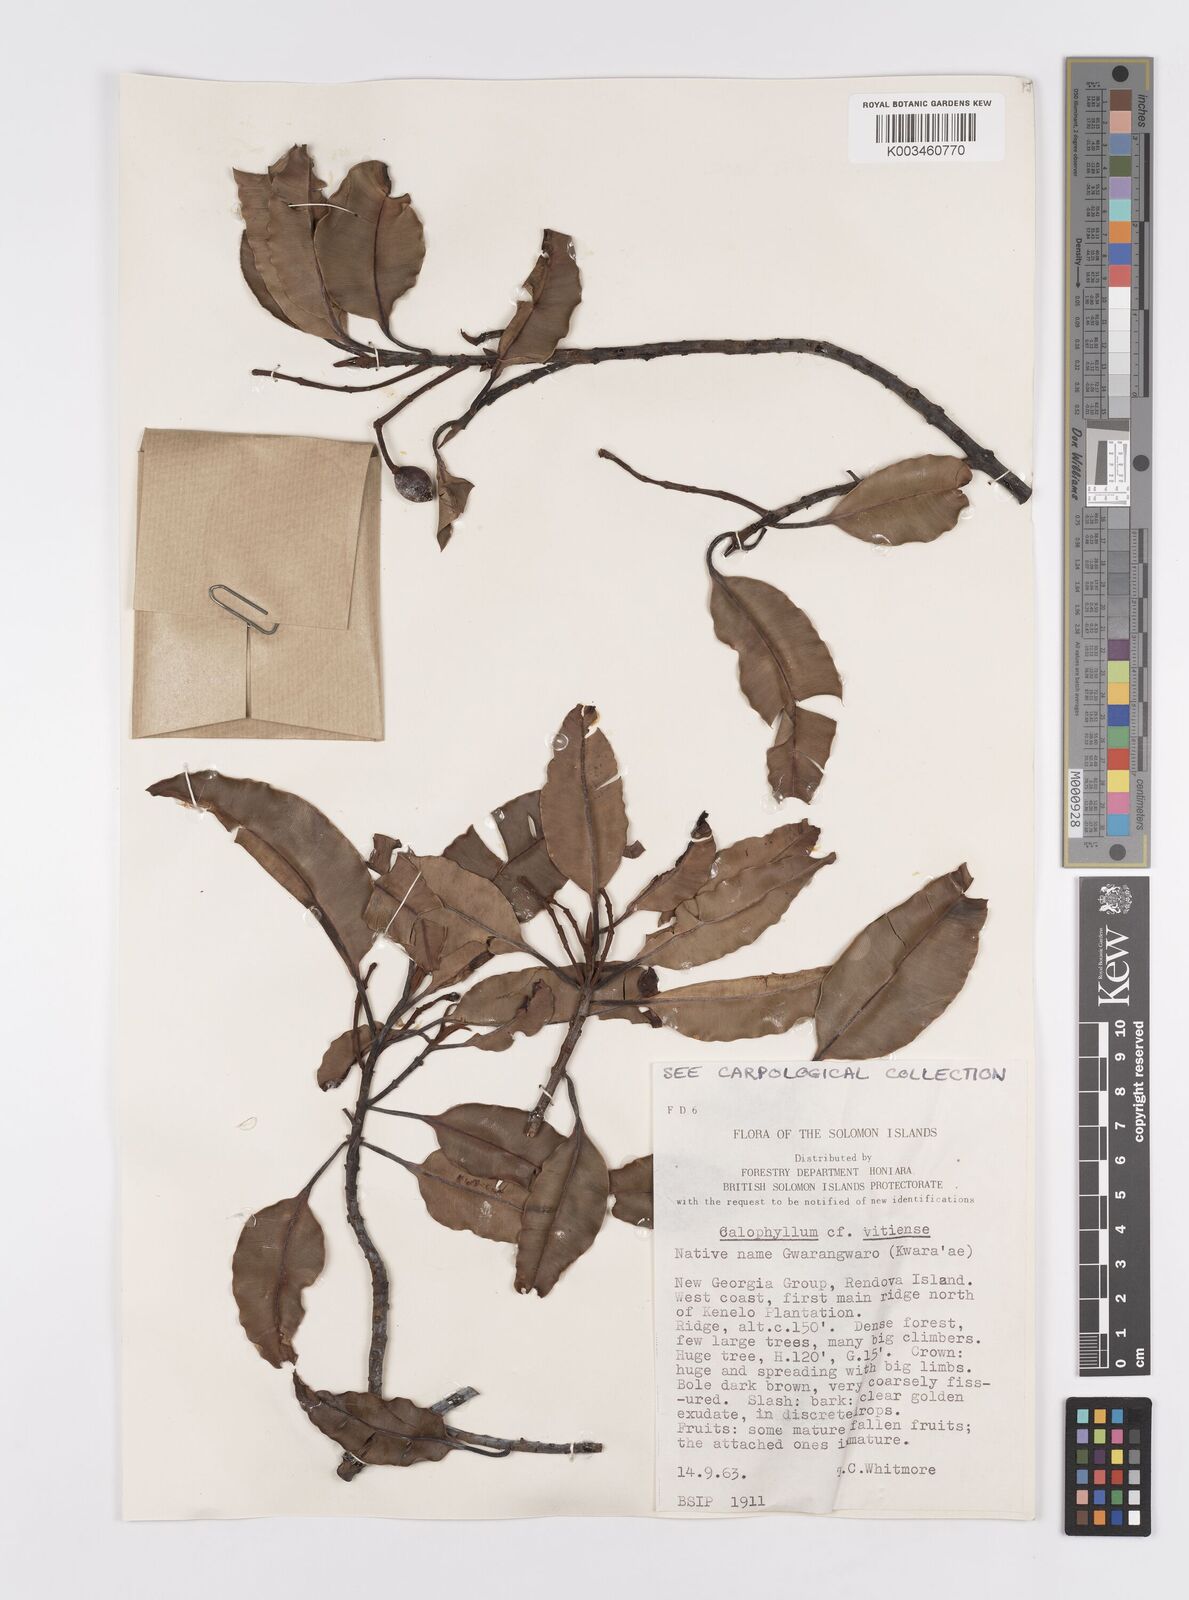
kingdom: Plantae
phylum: Tracheophyta
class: Magnoliopsida
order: Malpighiales
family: Calophyllaceae
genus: Calophyllum
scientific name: Calophyllum vitiense
